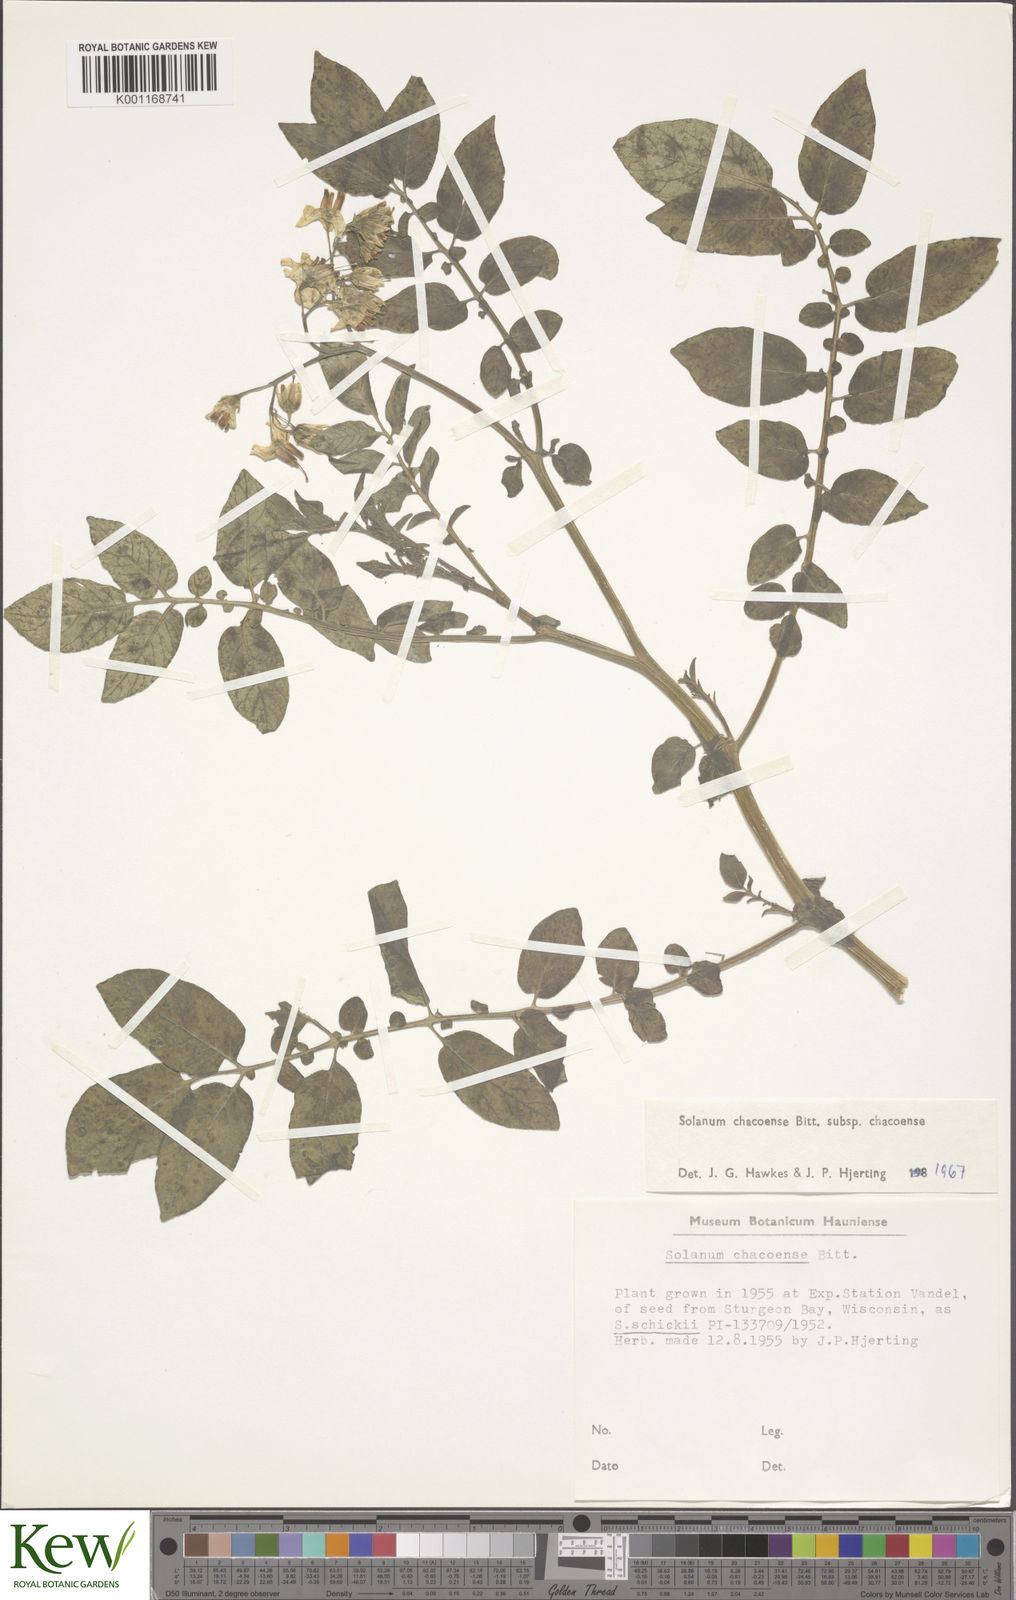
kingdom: Plantae
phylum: Tracheophyta
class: Magnoliopsida
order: Solanales
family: Solanaceae
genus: Solanum
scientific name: Solanum chacoense
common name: Chaco potato
